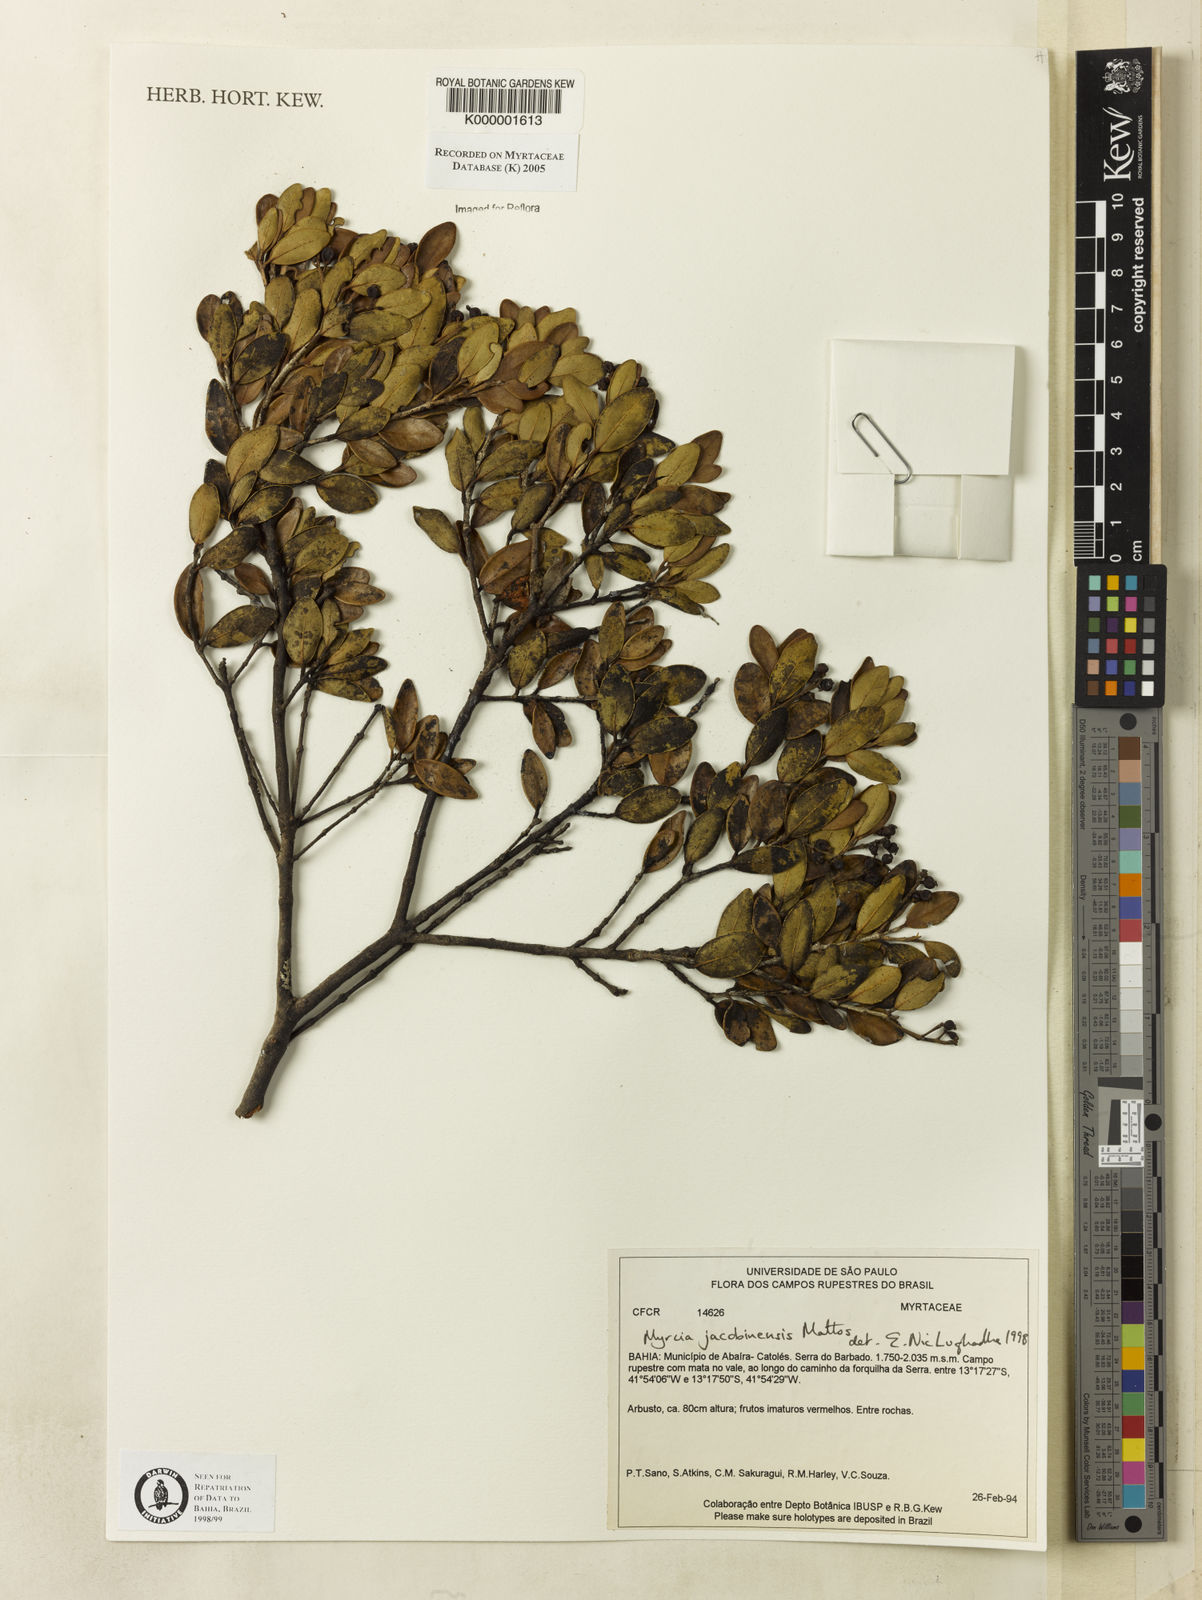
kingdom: Plantae
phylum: Tracheophyta
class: Magnoliopsida
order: Myrtales
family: Myrtaceae
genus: Myrcia
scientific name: Myrcia amazonica
